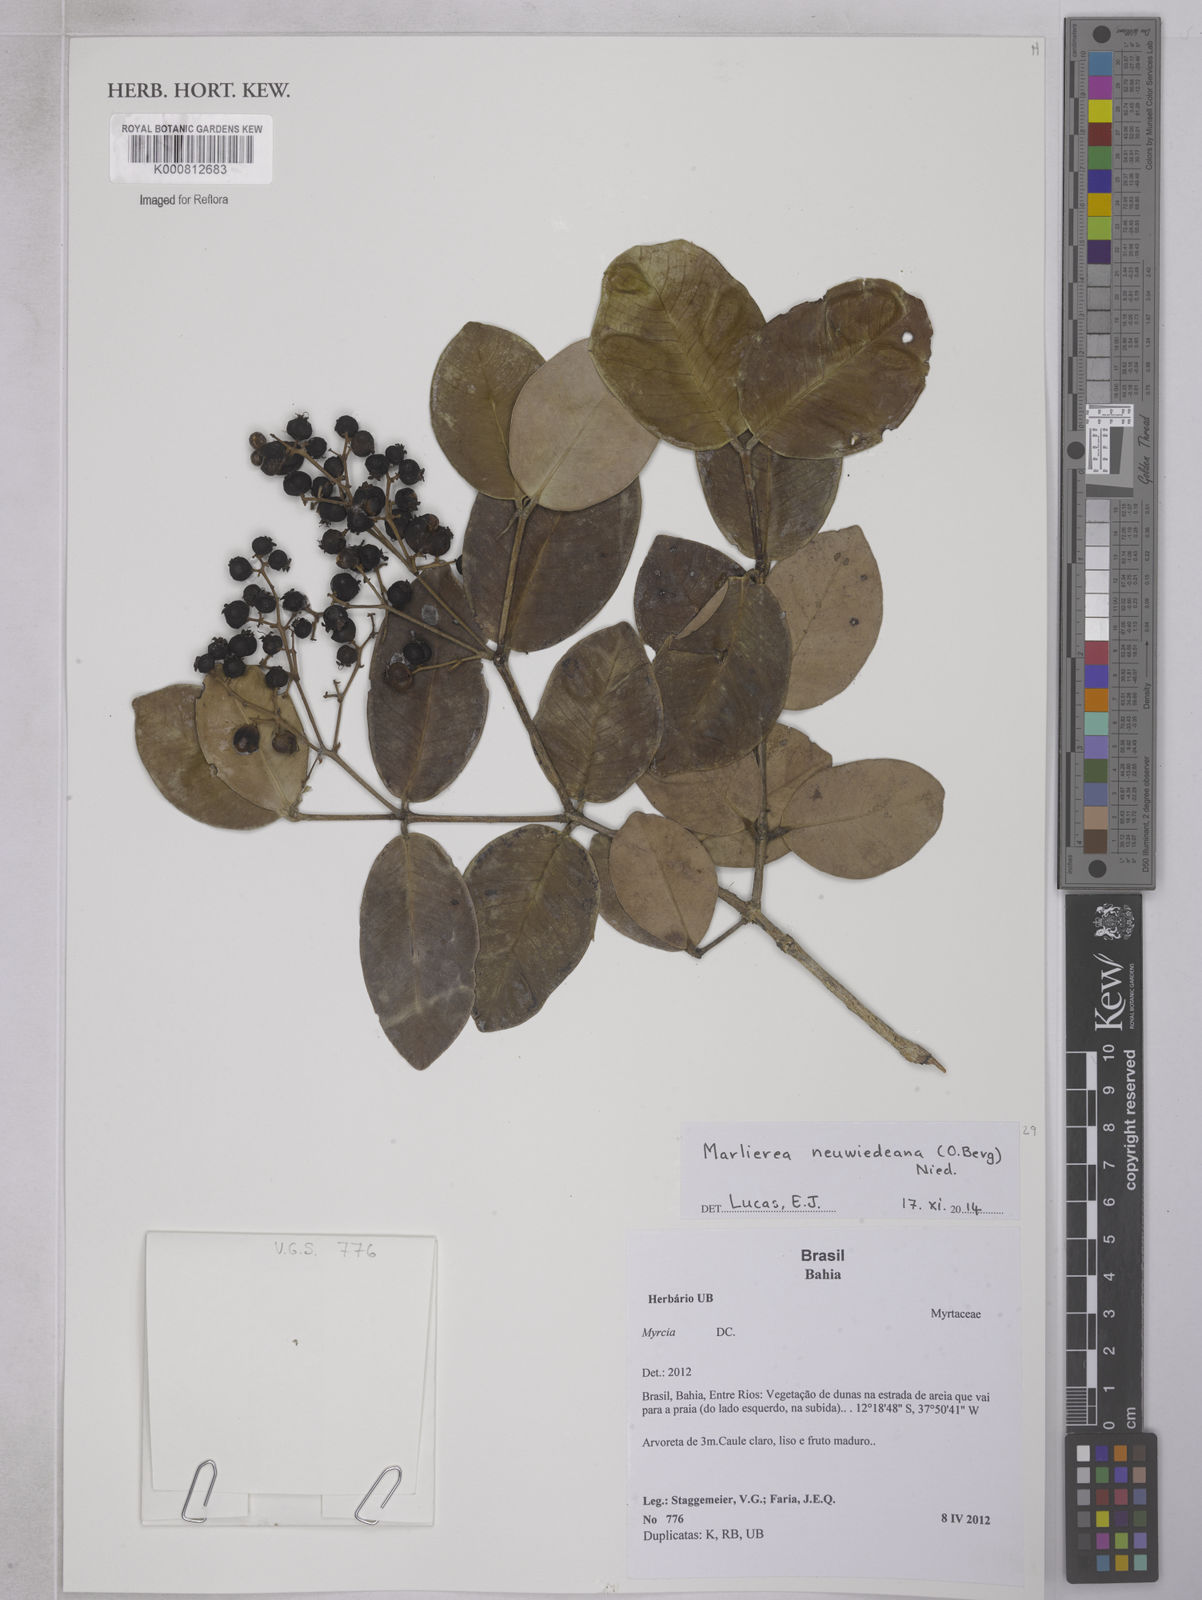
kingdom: Plantae
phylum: Tracheophyta
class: Magnoliopsida
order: Myrtales
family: Myrtaceae
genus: Myrcia
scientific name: Myrcia neuwiedeana
